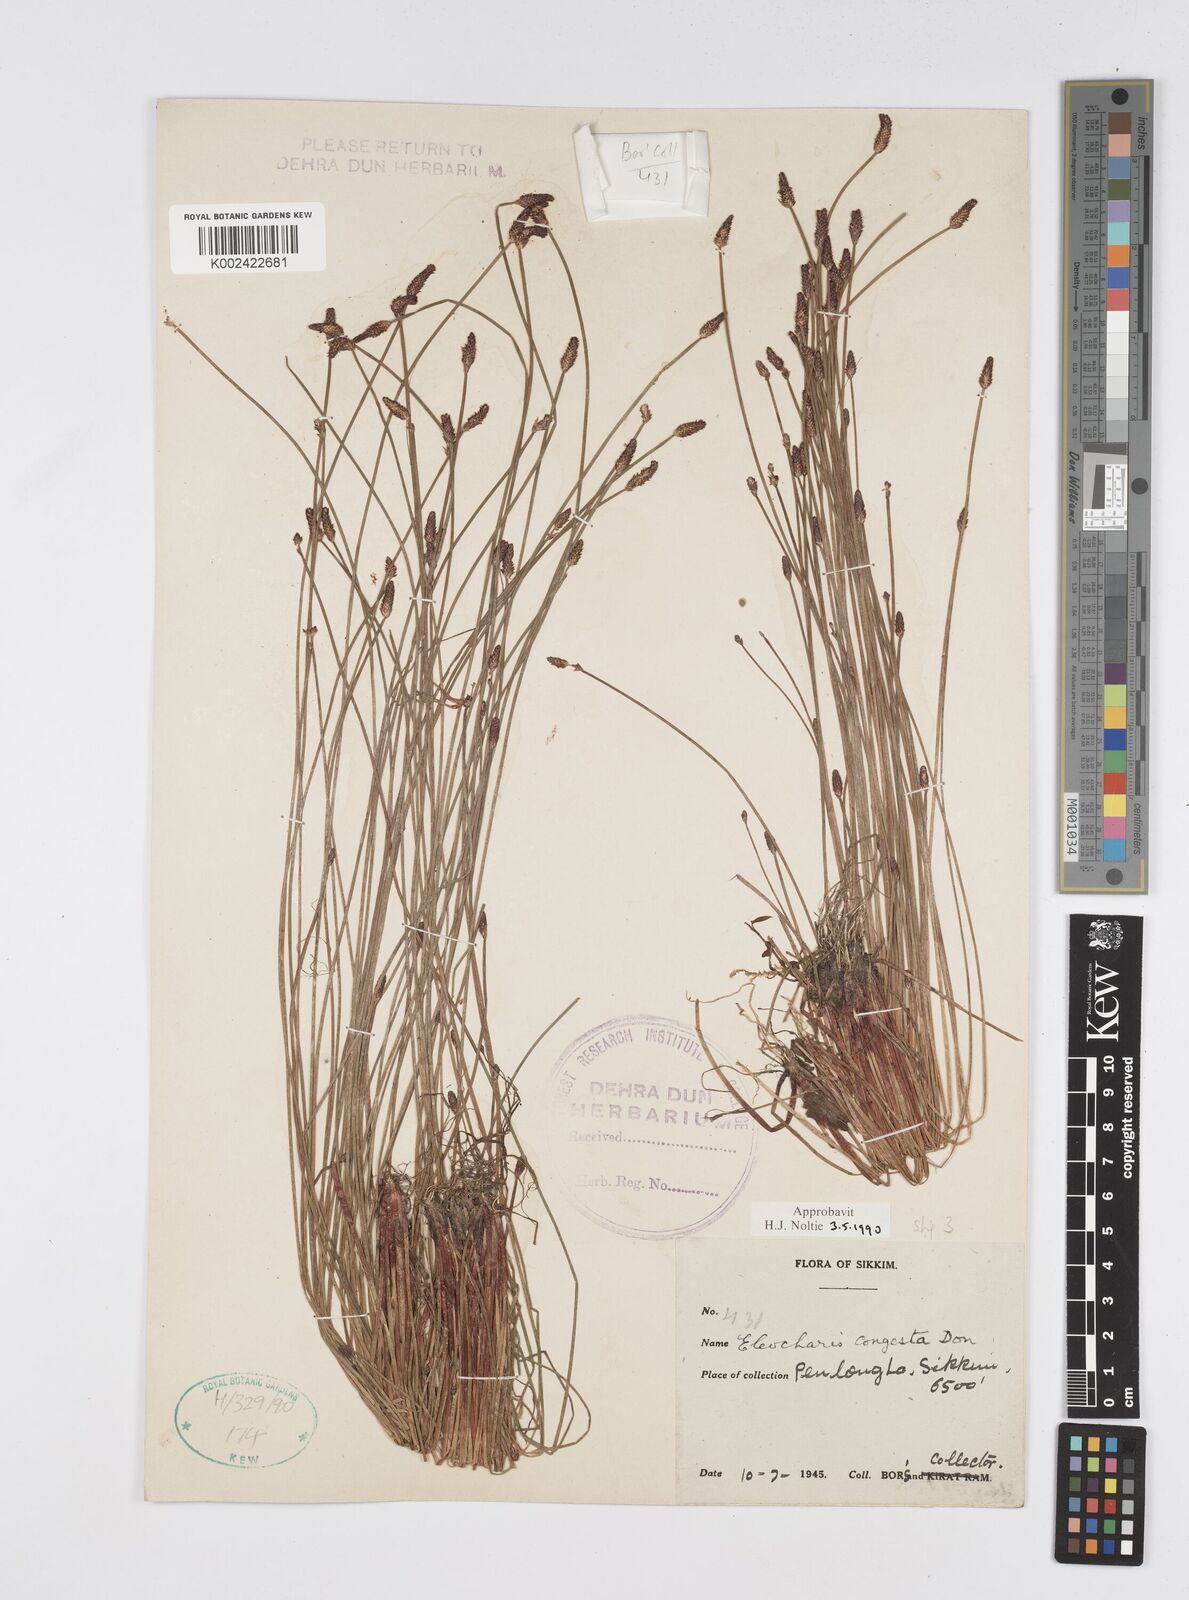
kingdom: Plantae
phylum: Tracheophyta
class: Liliopsida
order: Poales
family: Cyperaceae
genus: Eleocharis
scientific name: Eleocharis congesta
